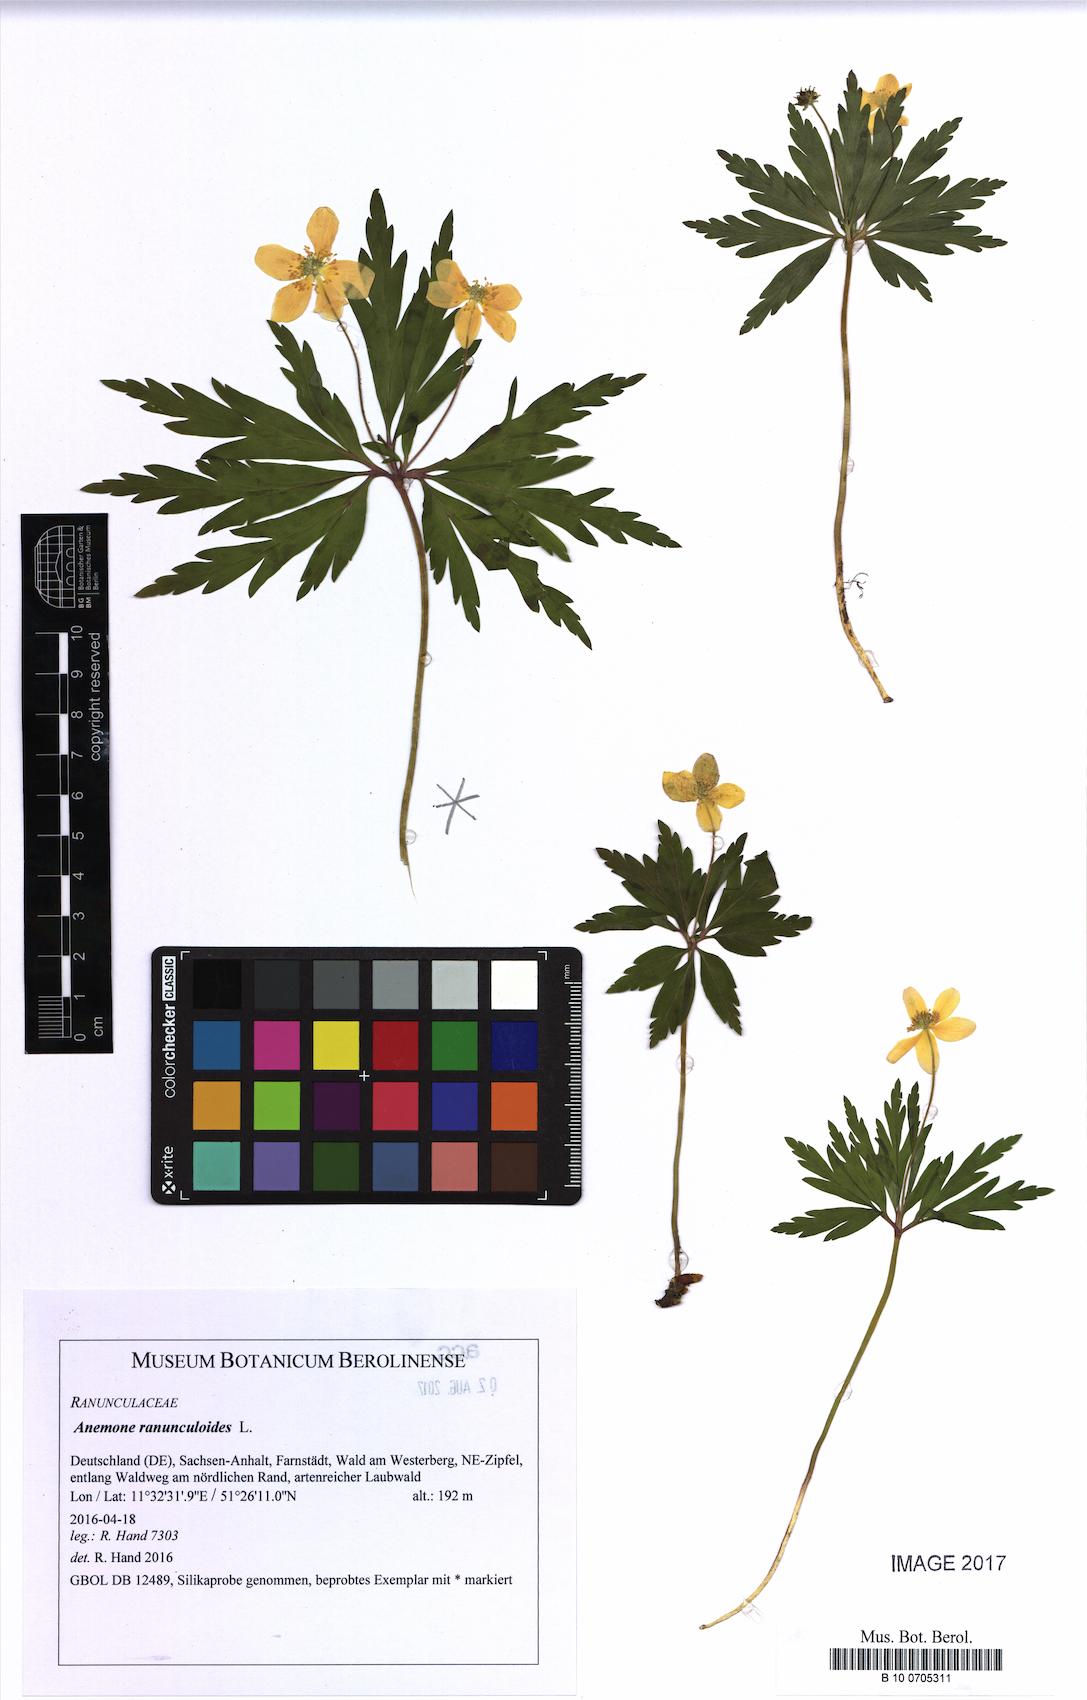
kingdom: Plantae
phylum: Tracheophyta
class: Magnoliopsida
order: Ranunculales
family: Ranunculaceae
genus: Anemone
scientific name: Anemone ranunculoides
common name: Yellow anemone
